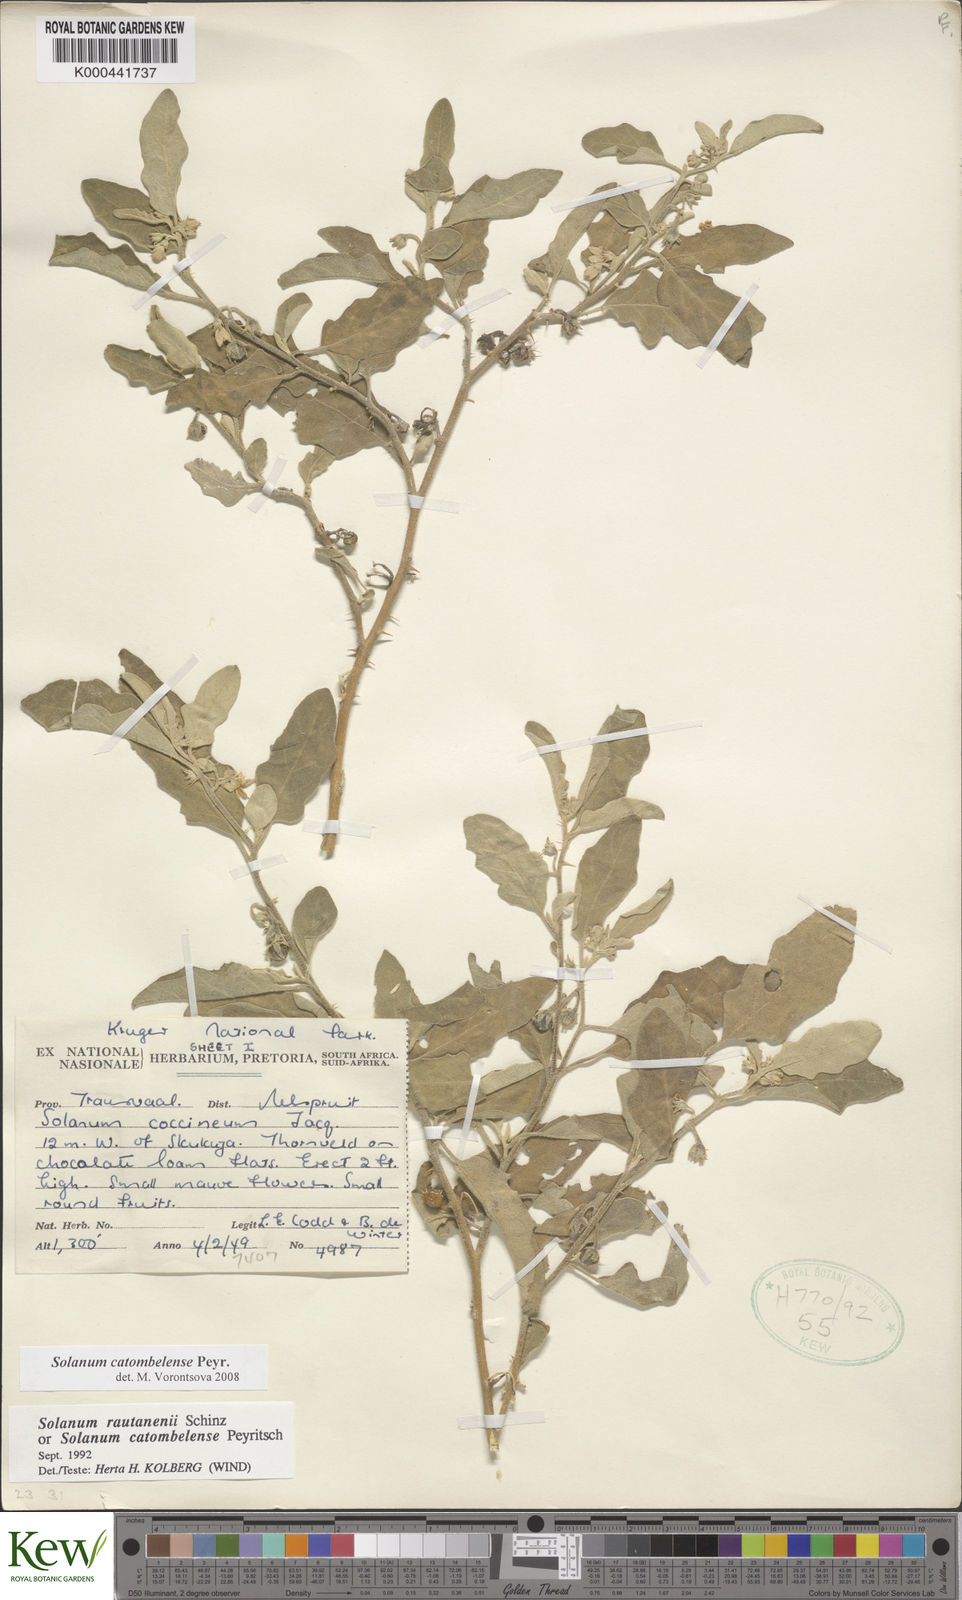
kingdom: Plantae
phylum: Tracheophyta
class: Magnoliopsida
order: Solanales
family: Solanaceae
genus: Solanum
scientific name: Solanum catombelense
